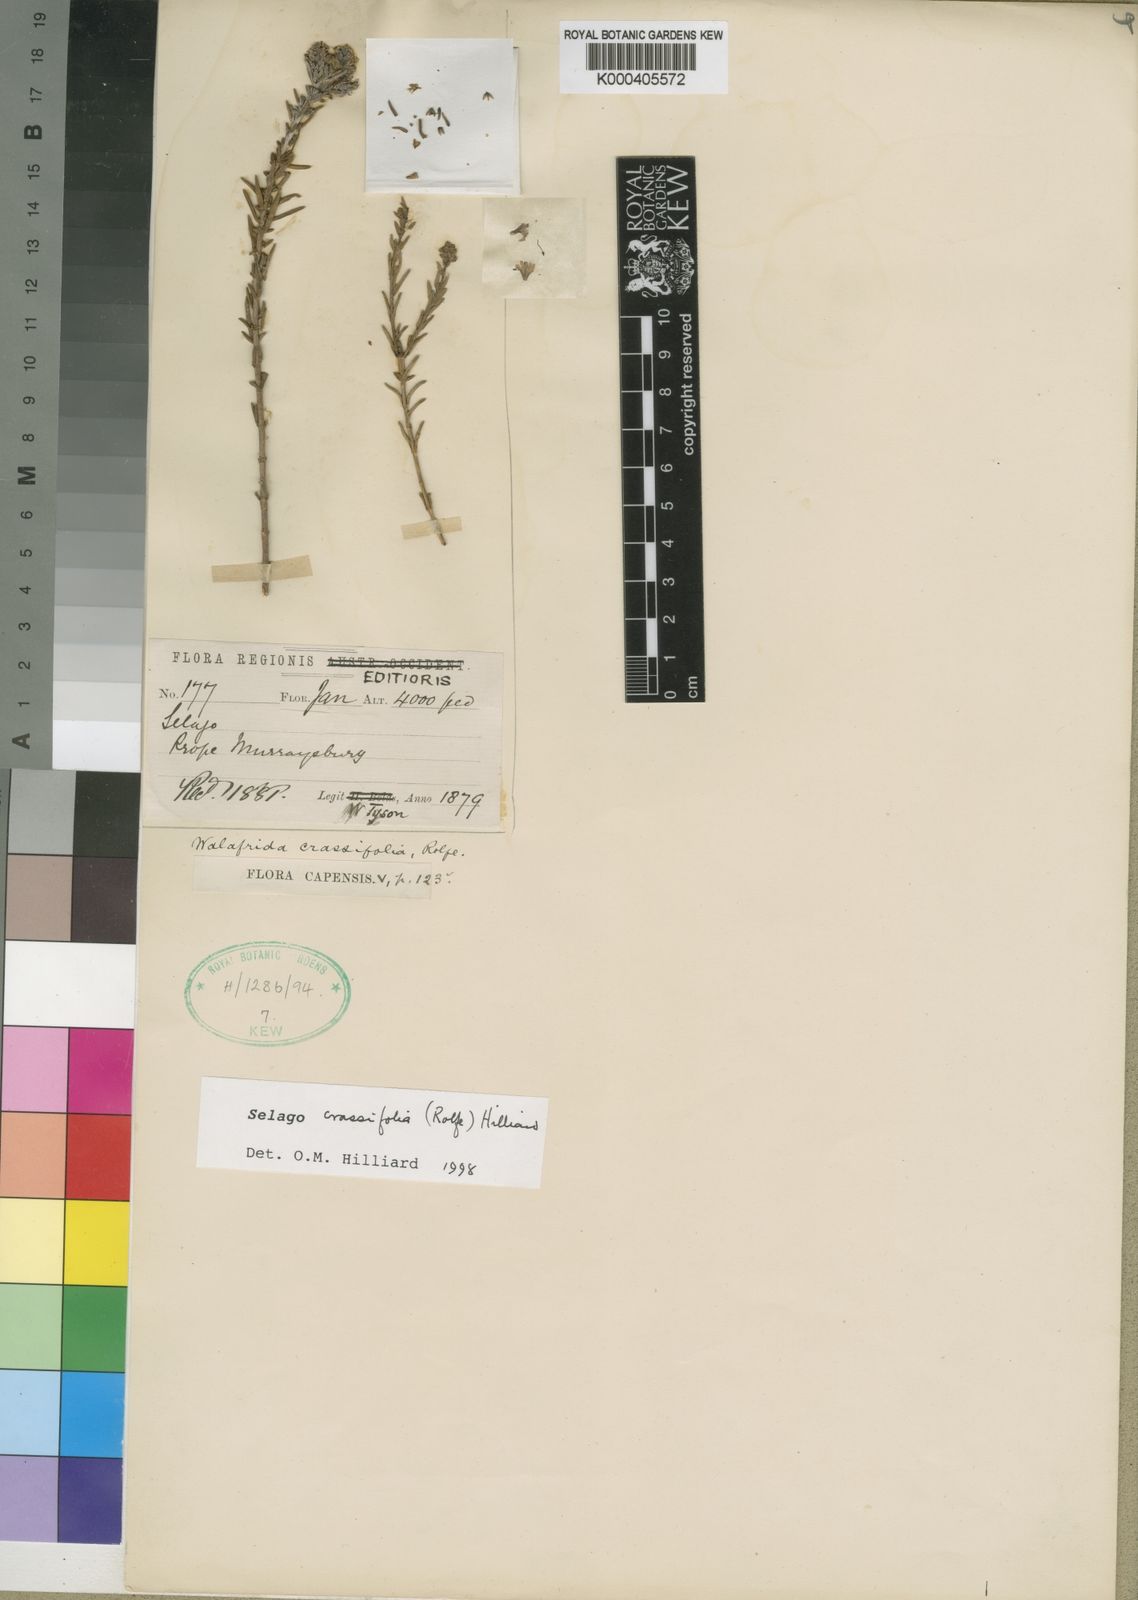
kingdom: Plantae
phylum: Tracheophyta
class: Magnoliopsida
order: Lamiales
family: Scrophulariaceae
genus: Selago
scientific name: Selago crassifolia
